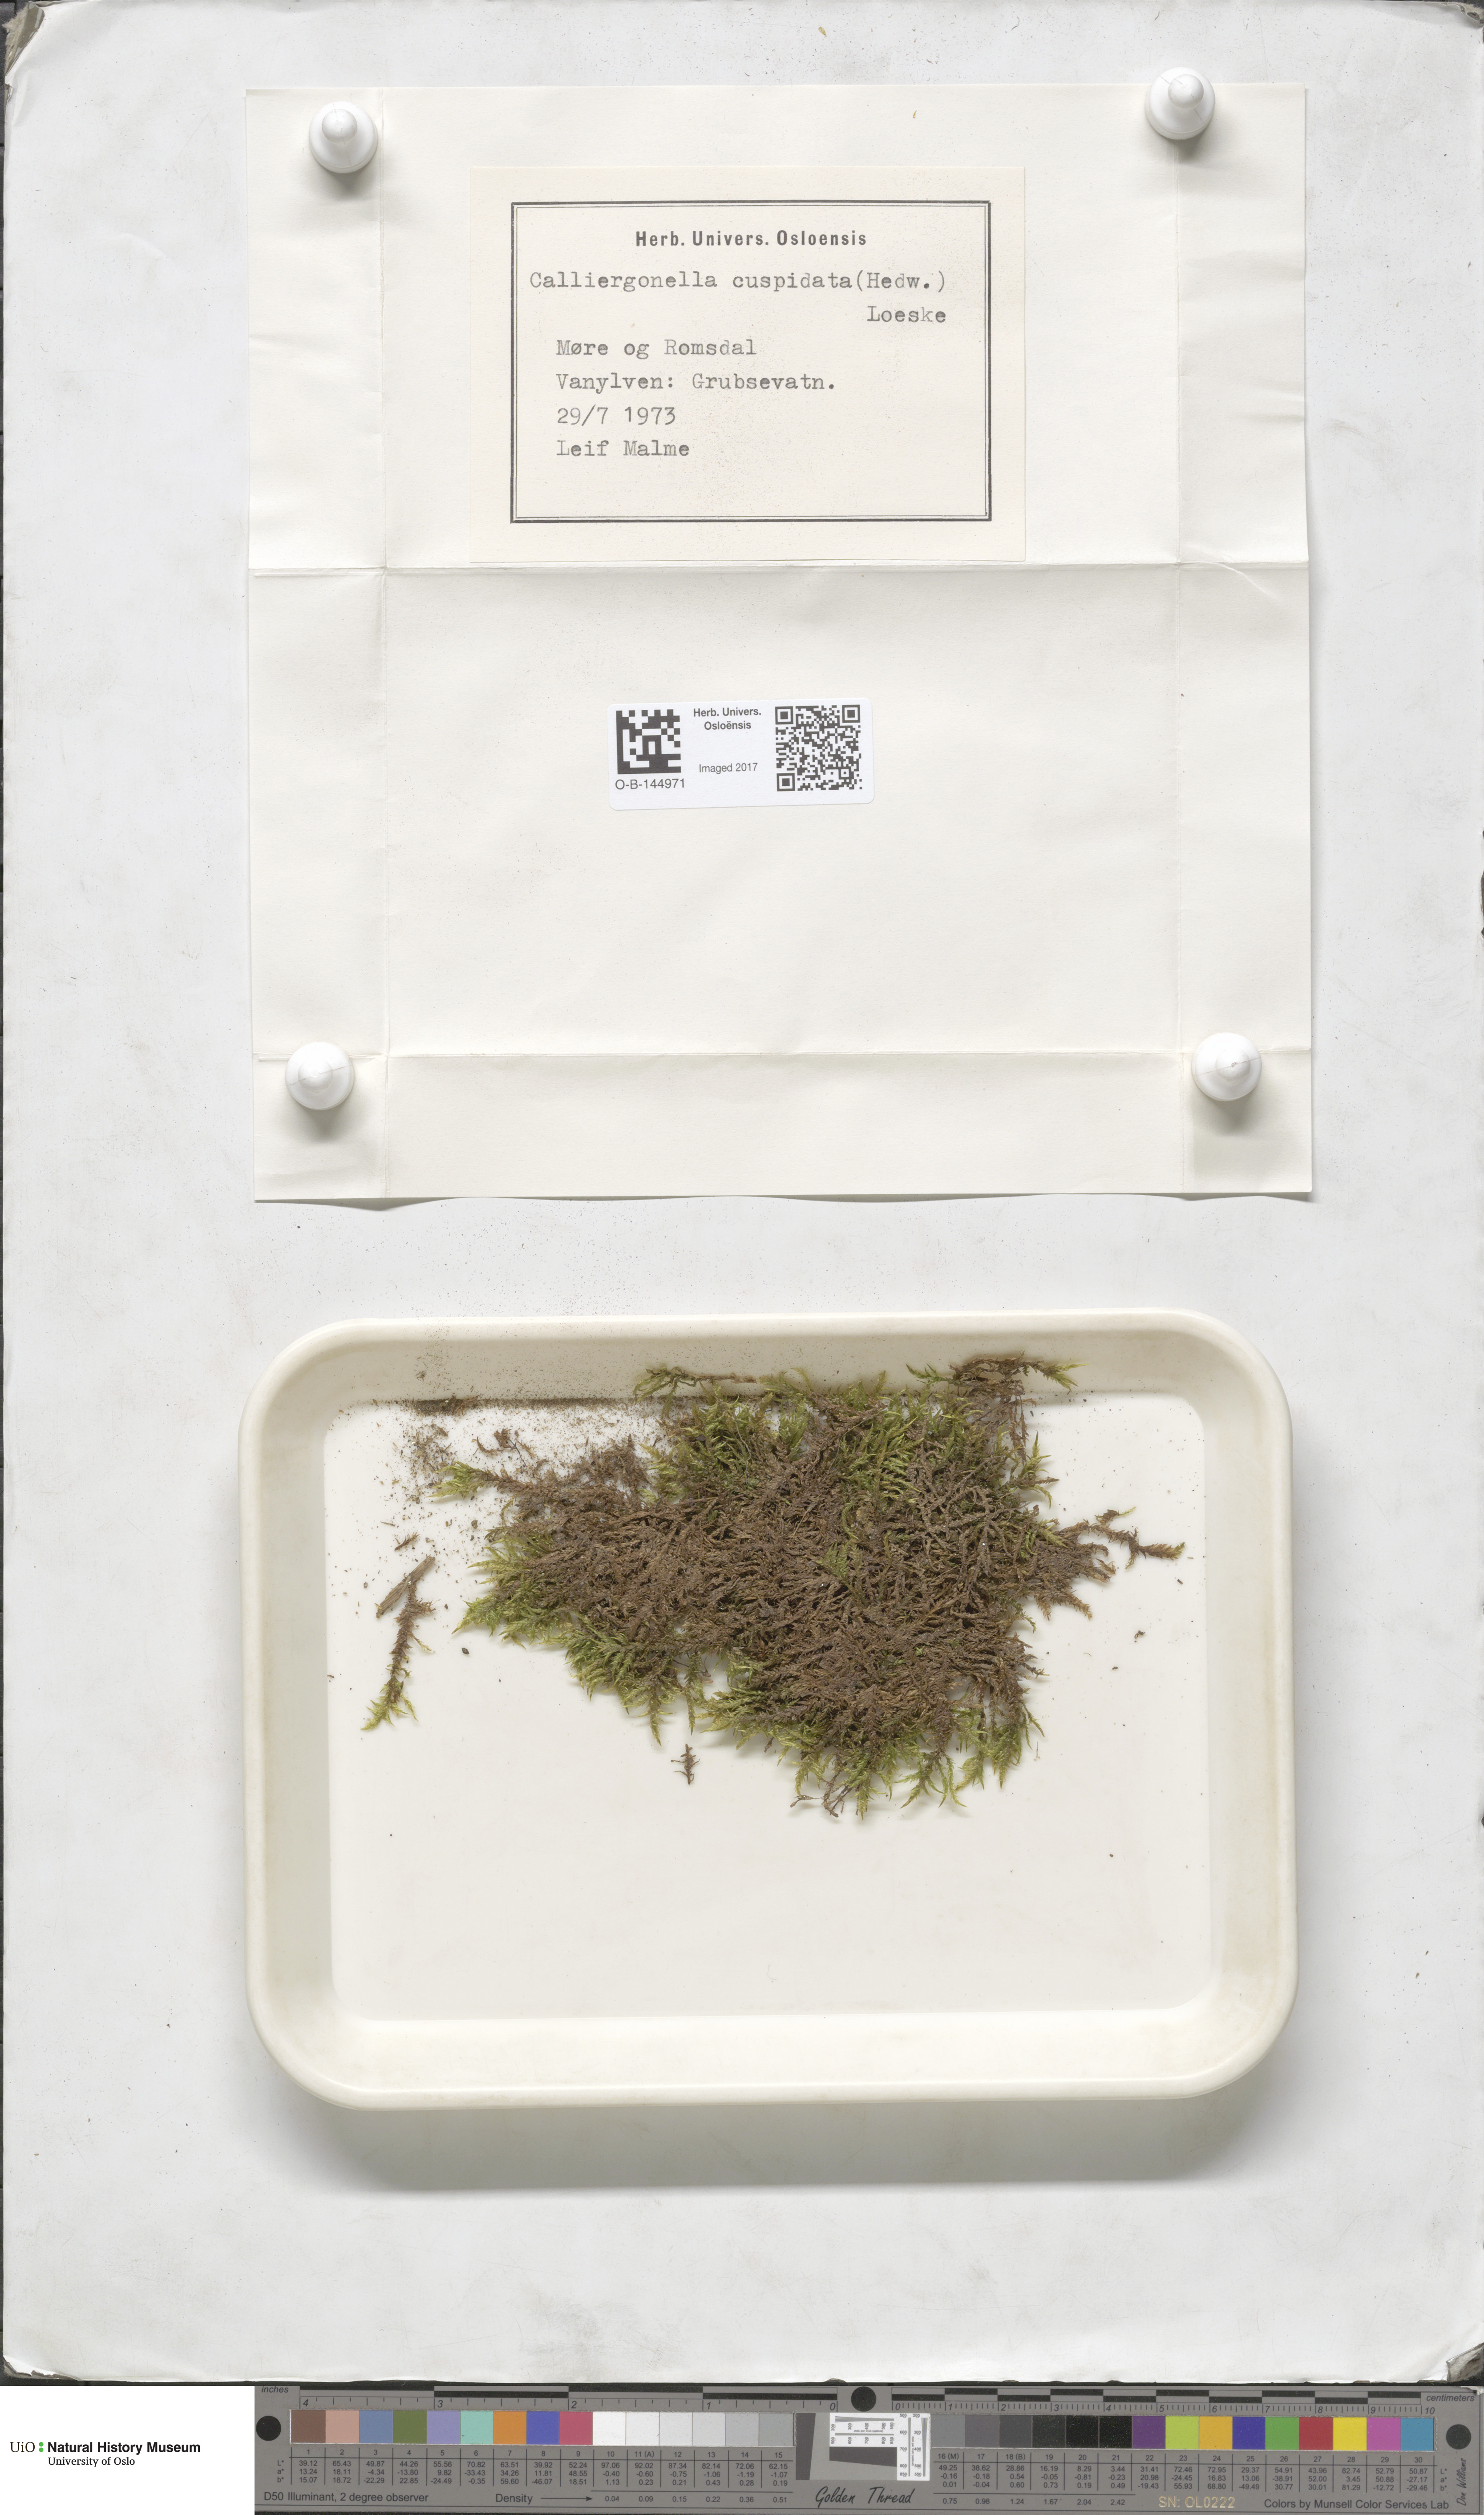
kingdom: Plantae
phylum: Bryophyta
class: Bryopsida
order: Hypnales
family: Pylaisiaceae
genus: Calliergonella
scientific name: Calliergonella cuspidata
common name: Common large wetland moss
